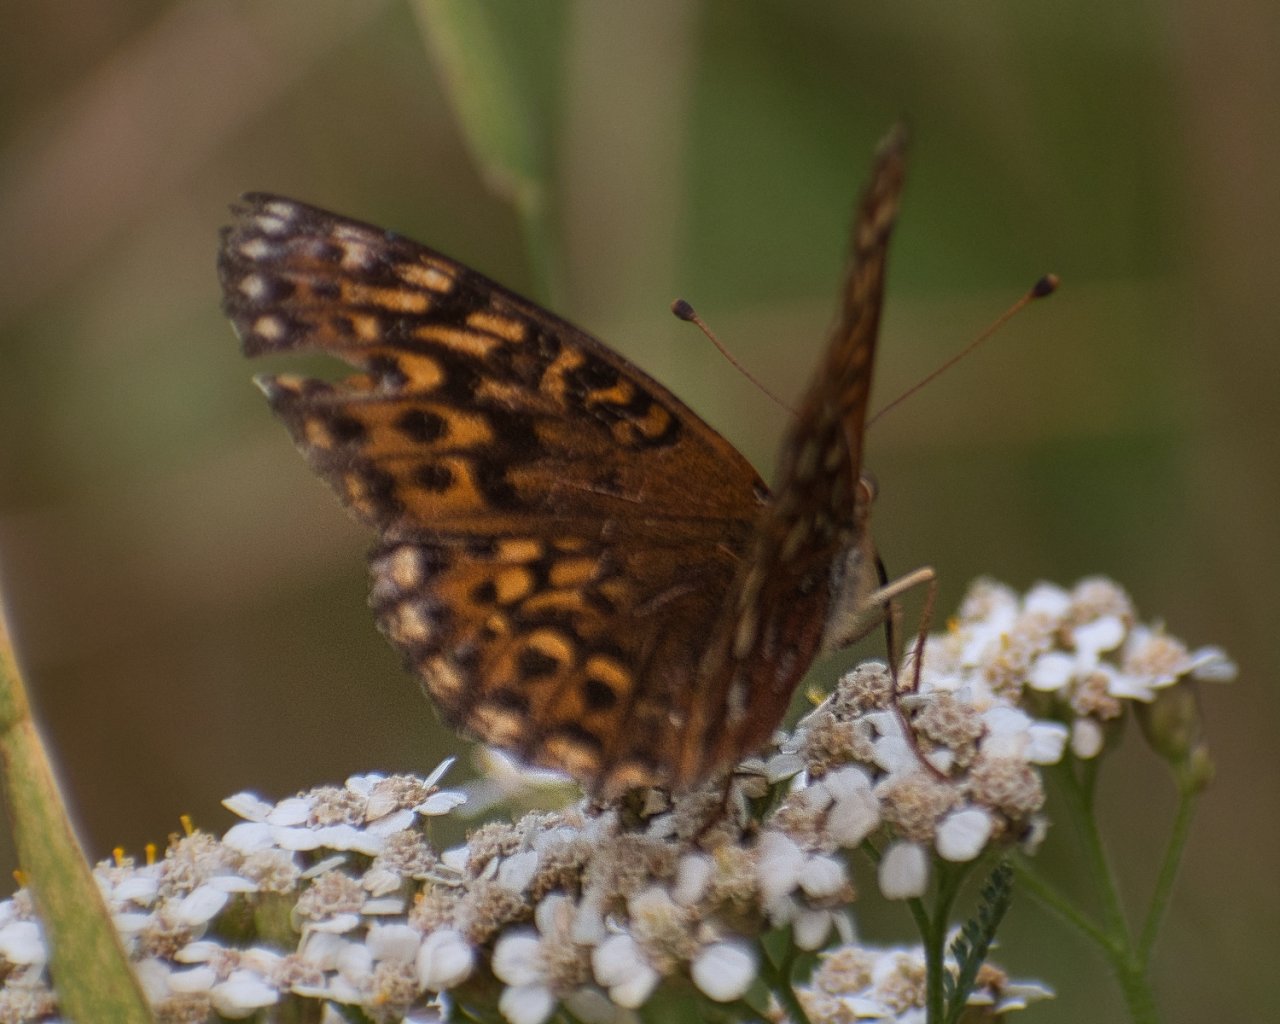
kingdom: Animalia
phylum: Arthropoda
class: Insecta
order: Lepidoptera
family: Nymphalidae
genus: Speyeria
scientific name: Speyeria hydaspe
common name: Hydaspe Fritillary
